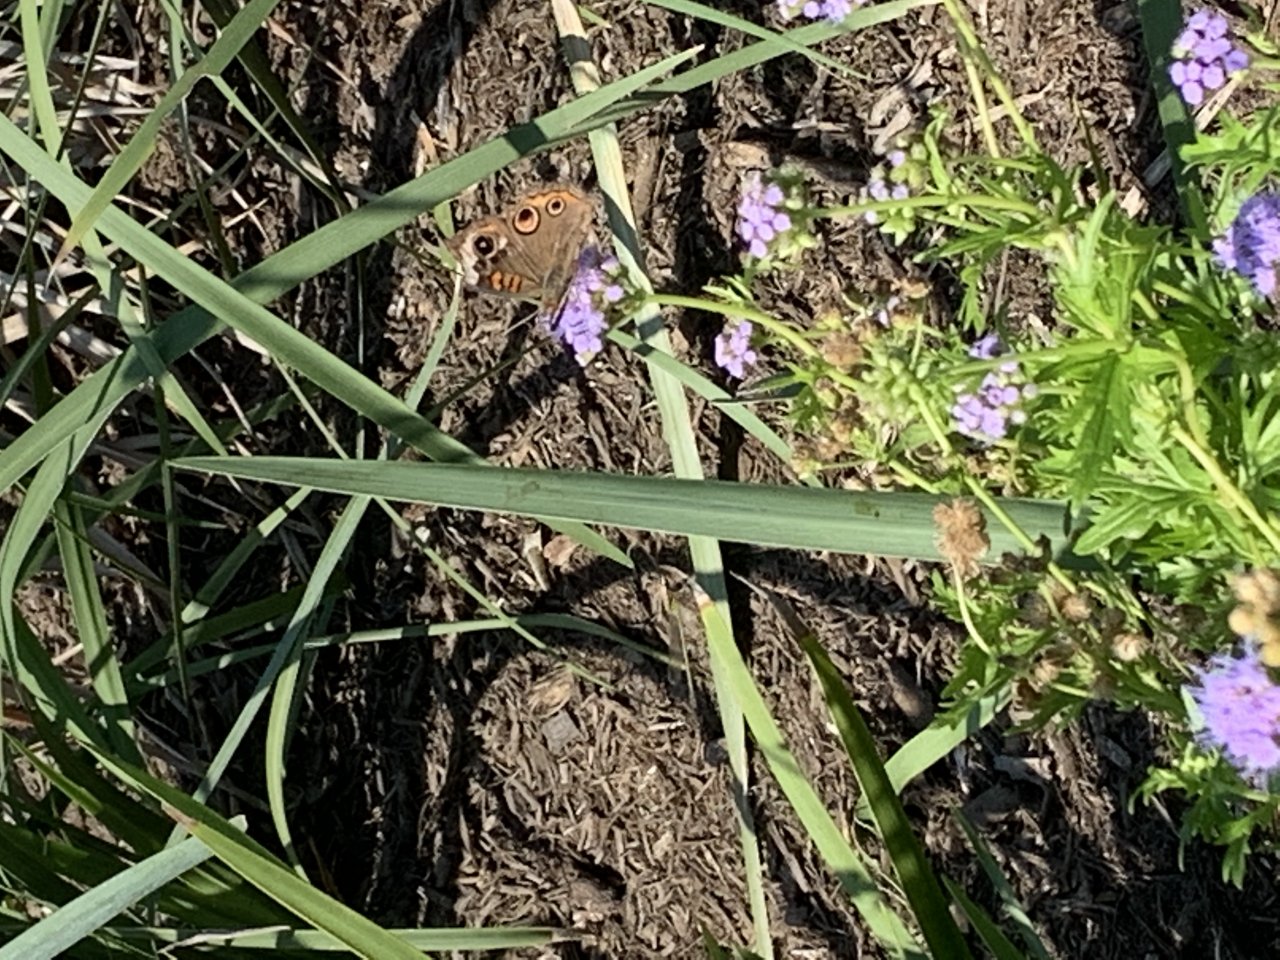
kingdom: Animalia
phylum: Arthropoda
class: Insecta
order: Lepidoptera
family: Nymphalidae
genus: Junonia
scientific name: Junonia coenia
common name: Common Buckeye
